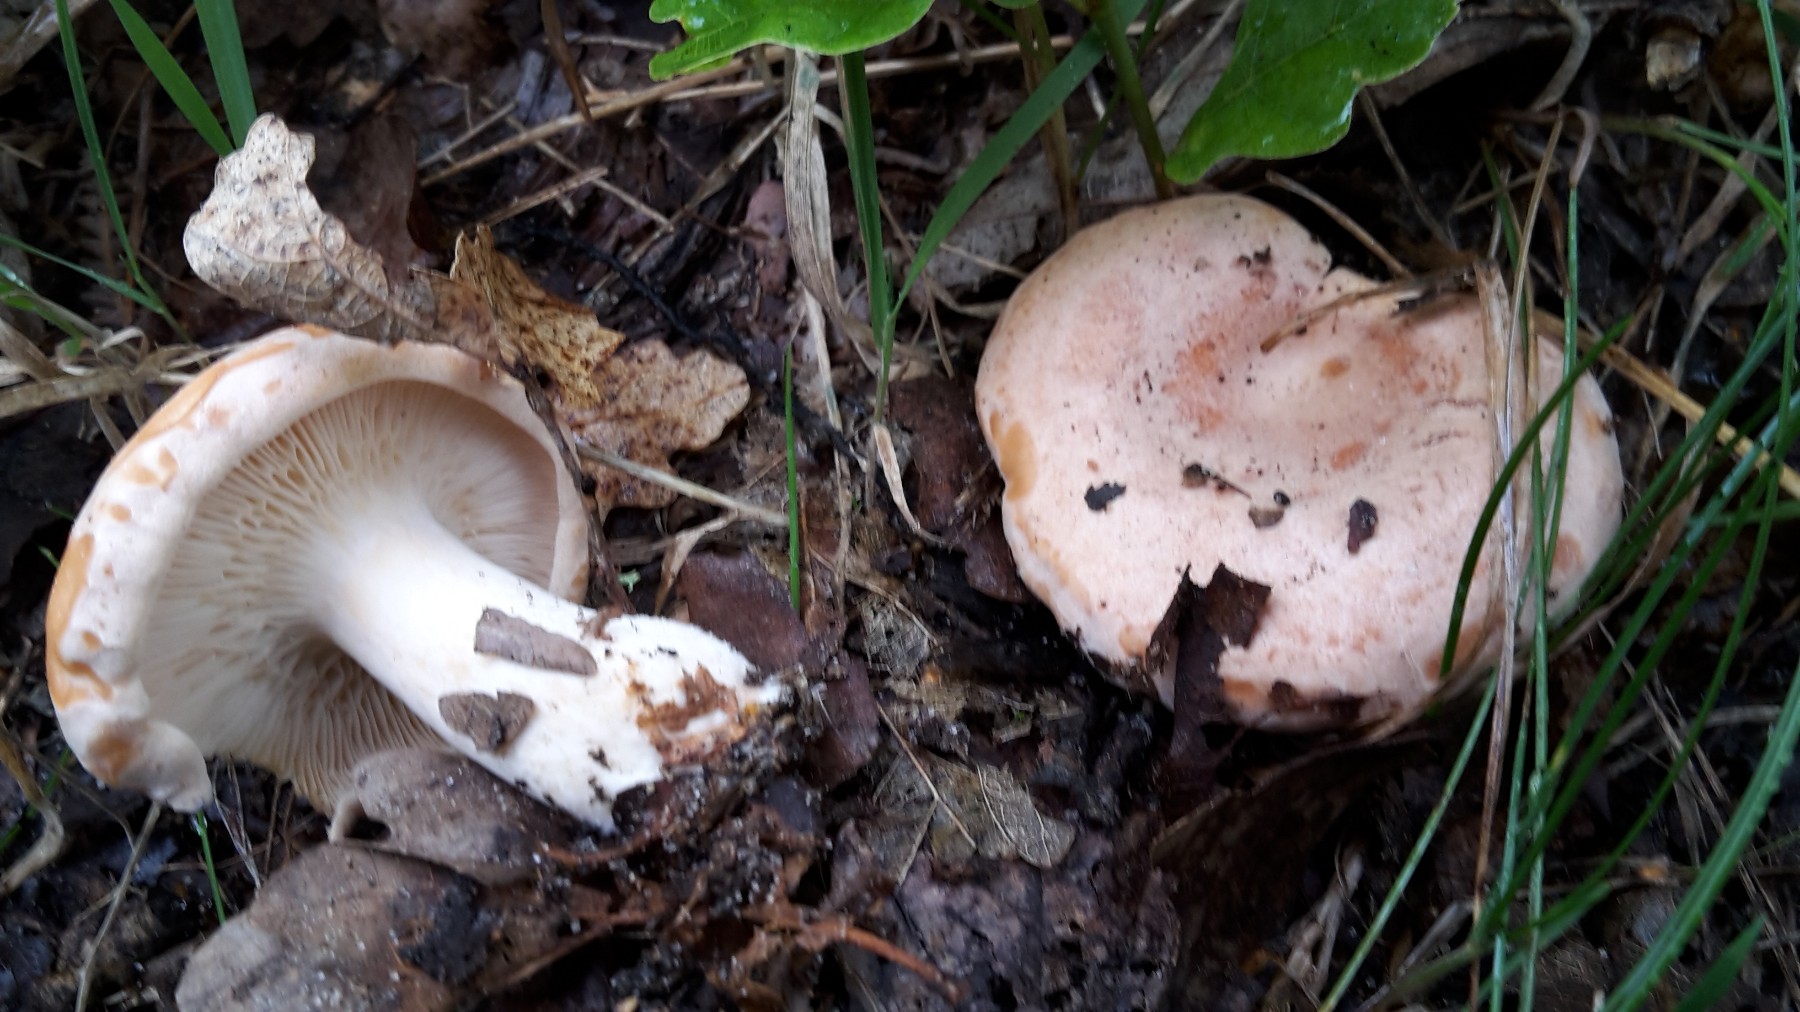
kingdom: Fungi
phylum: Basidiomycota
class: Agaricomycetes
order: Russulales
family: Russulaceae
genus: Lactarius
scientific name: Lactarius chrysorrheus
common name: svovlmælket mælkehat
